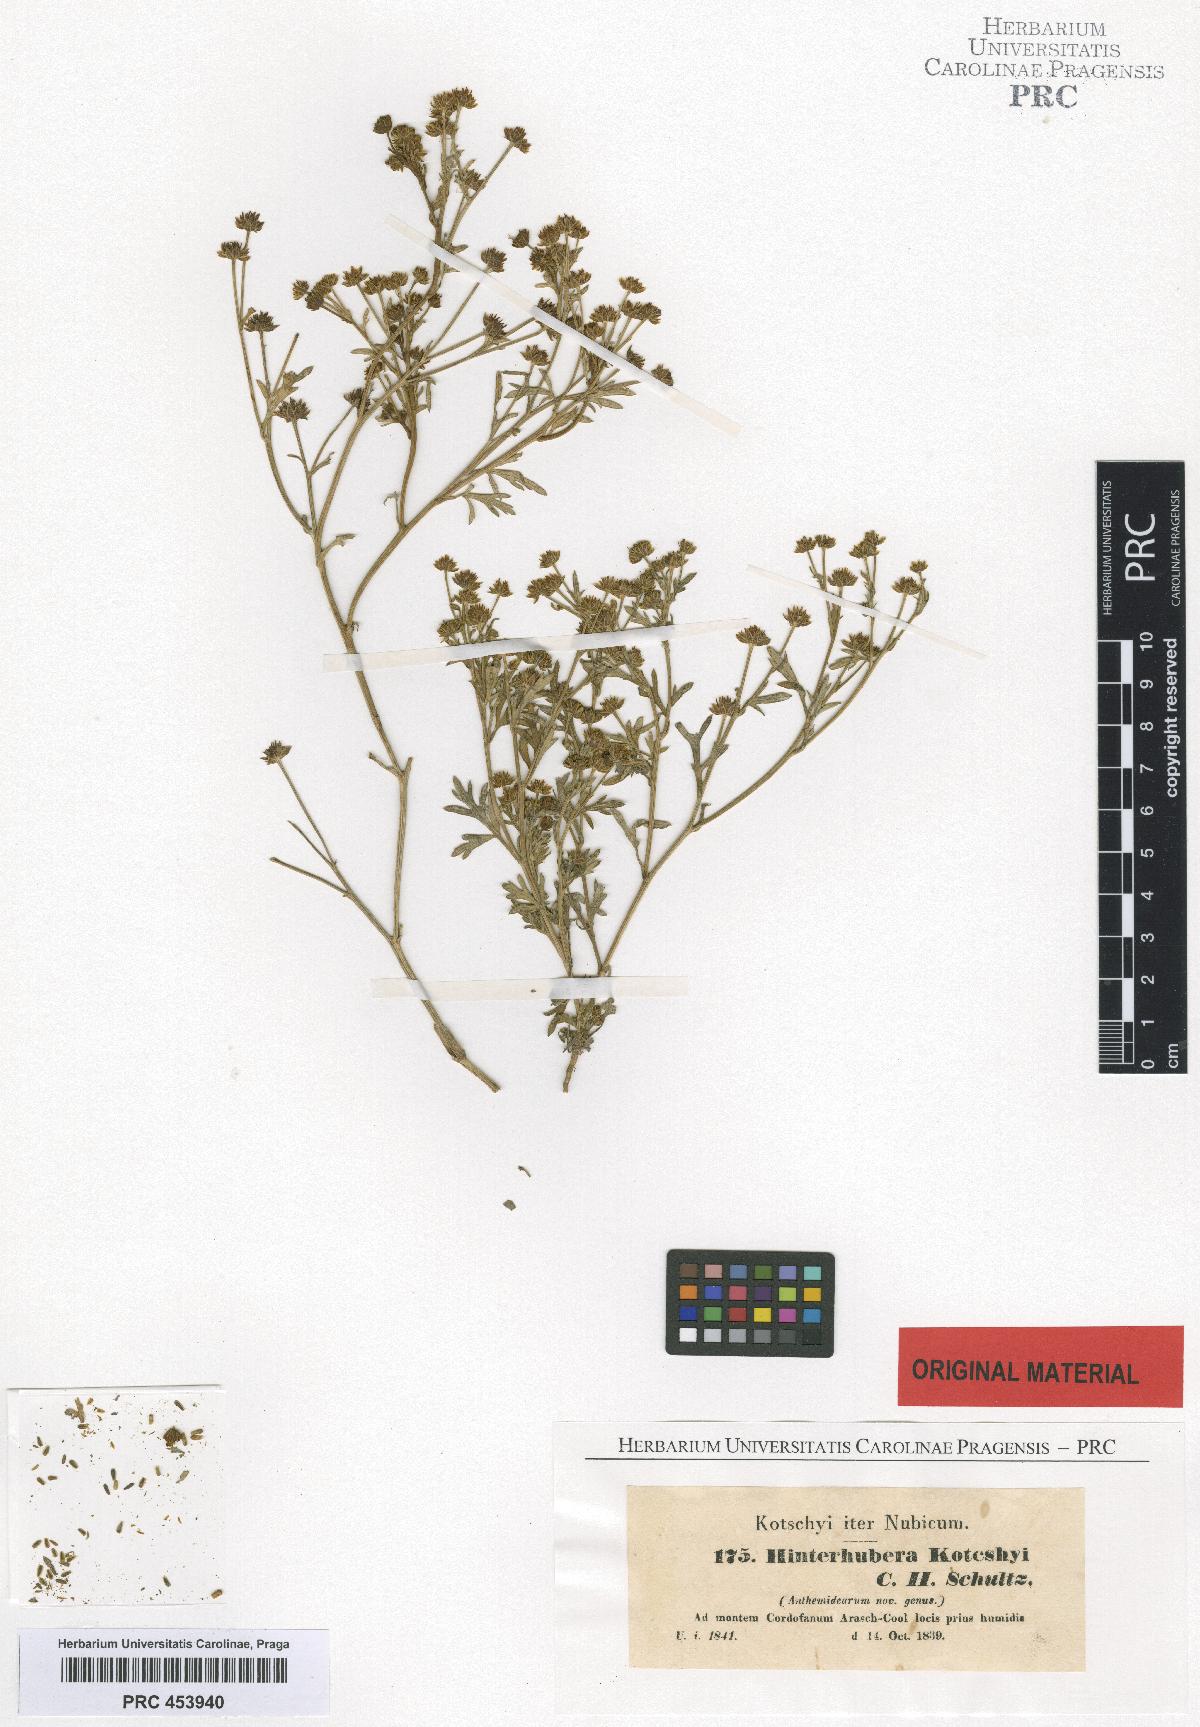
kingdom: Plantae
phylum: Tracheophyta
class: Magnoliopsida
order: Asterales
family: Asteraceae
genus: Chrysanthellum
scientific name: Chrysanthellum indicum
